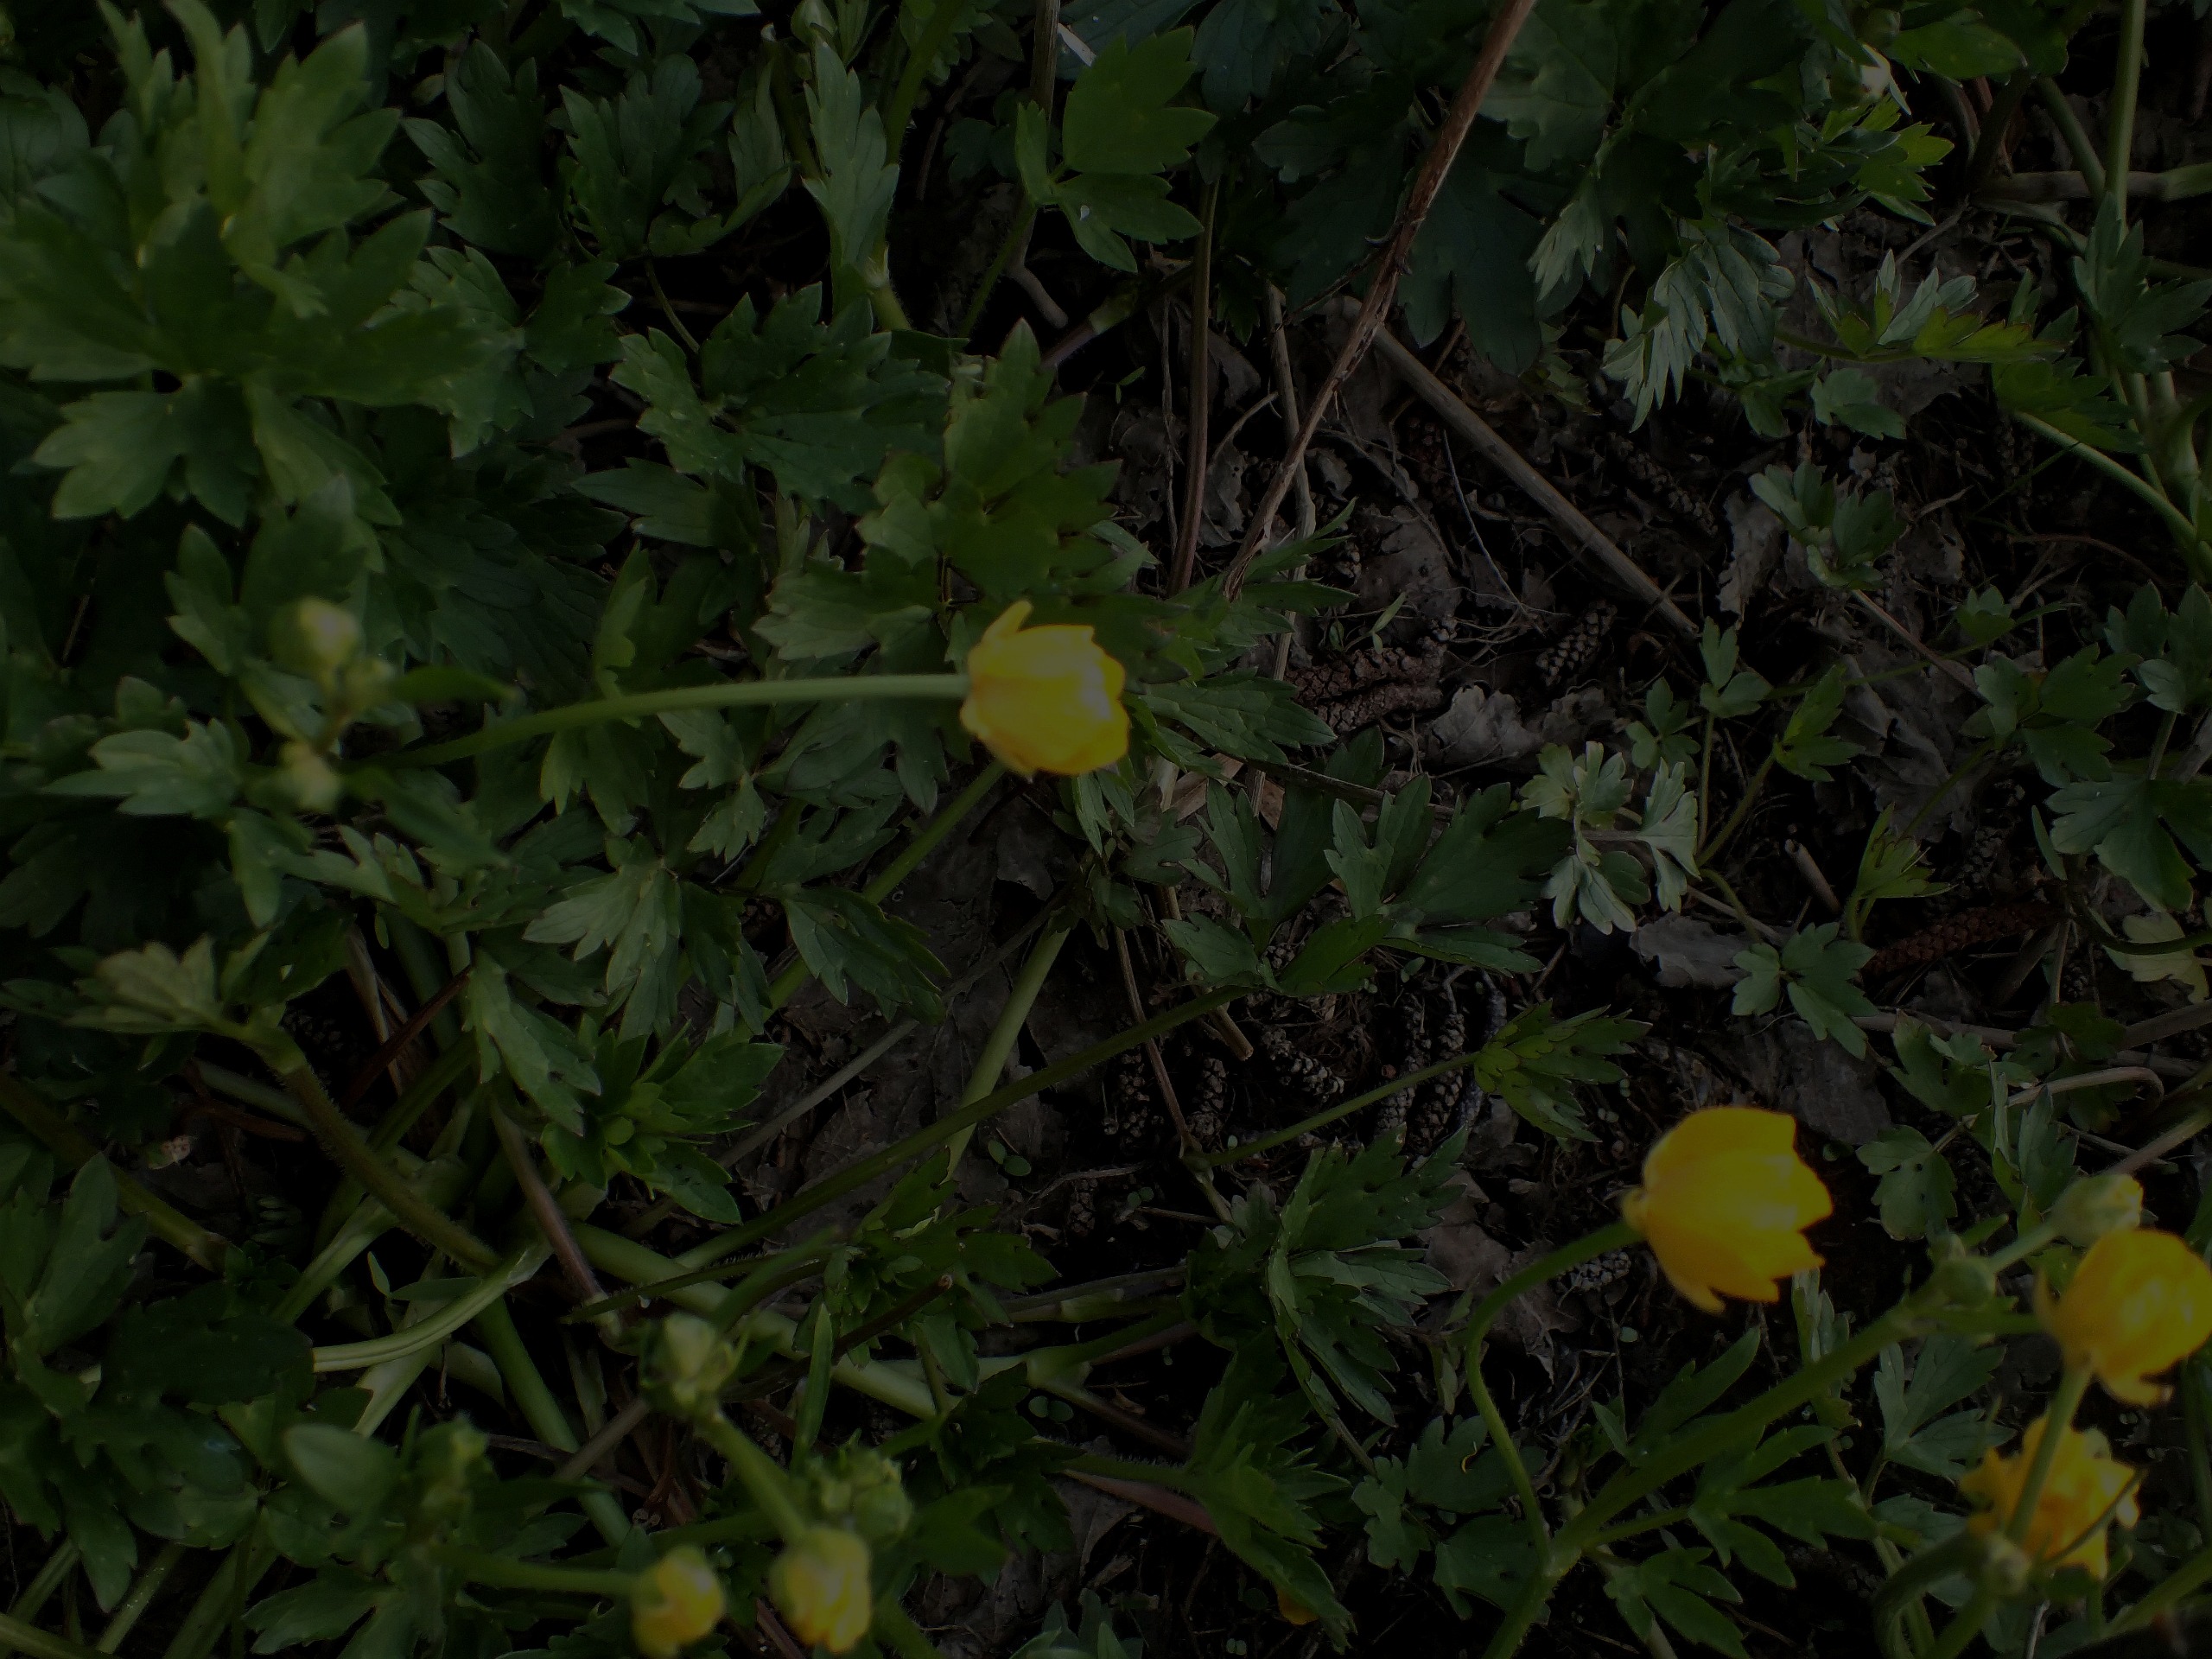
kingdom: Plantae
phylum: Tracheophyta
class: Magnoliopsida
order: Ranunculales
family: Ranunculaceae
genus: Ranunculus
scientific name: Ranunculus repens
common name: Lav ranunkel
